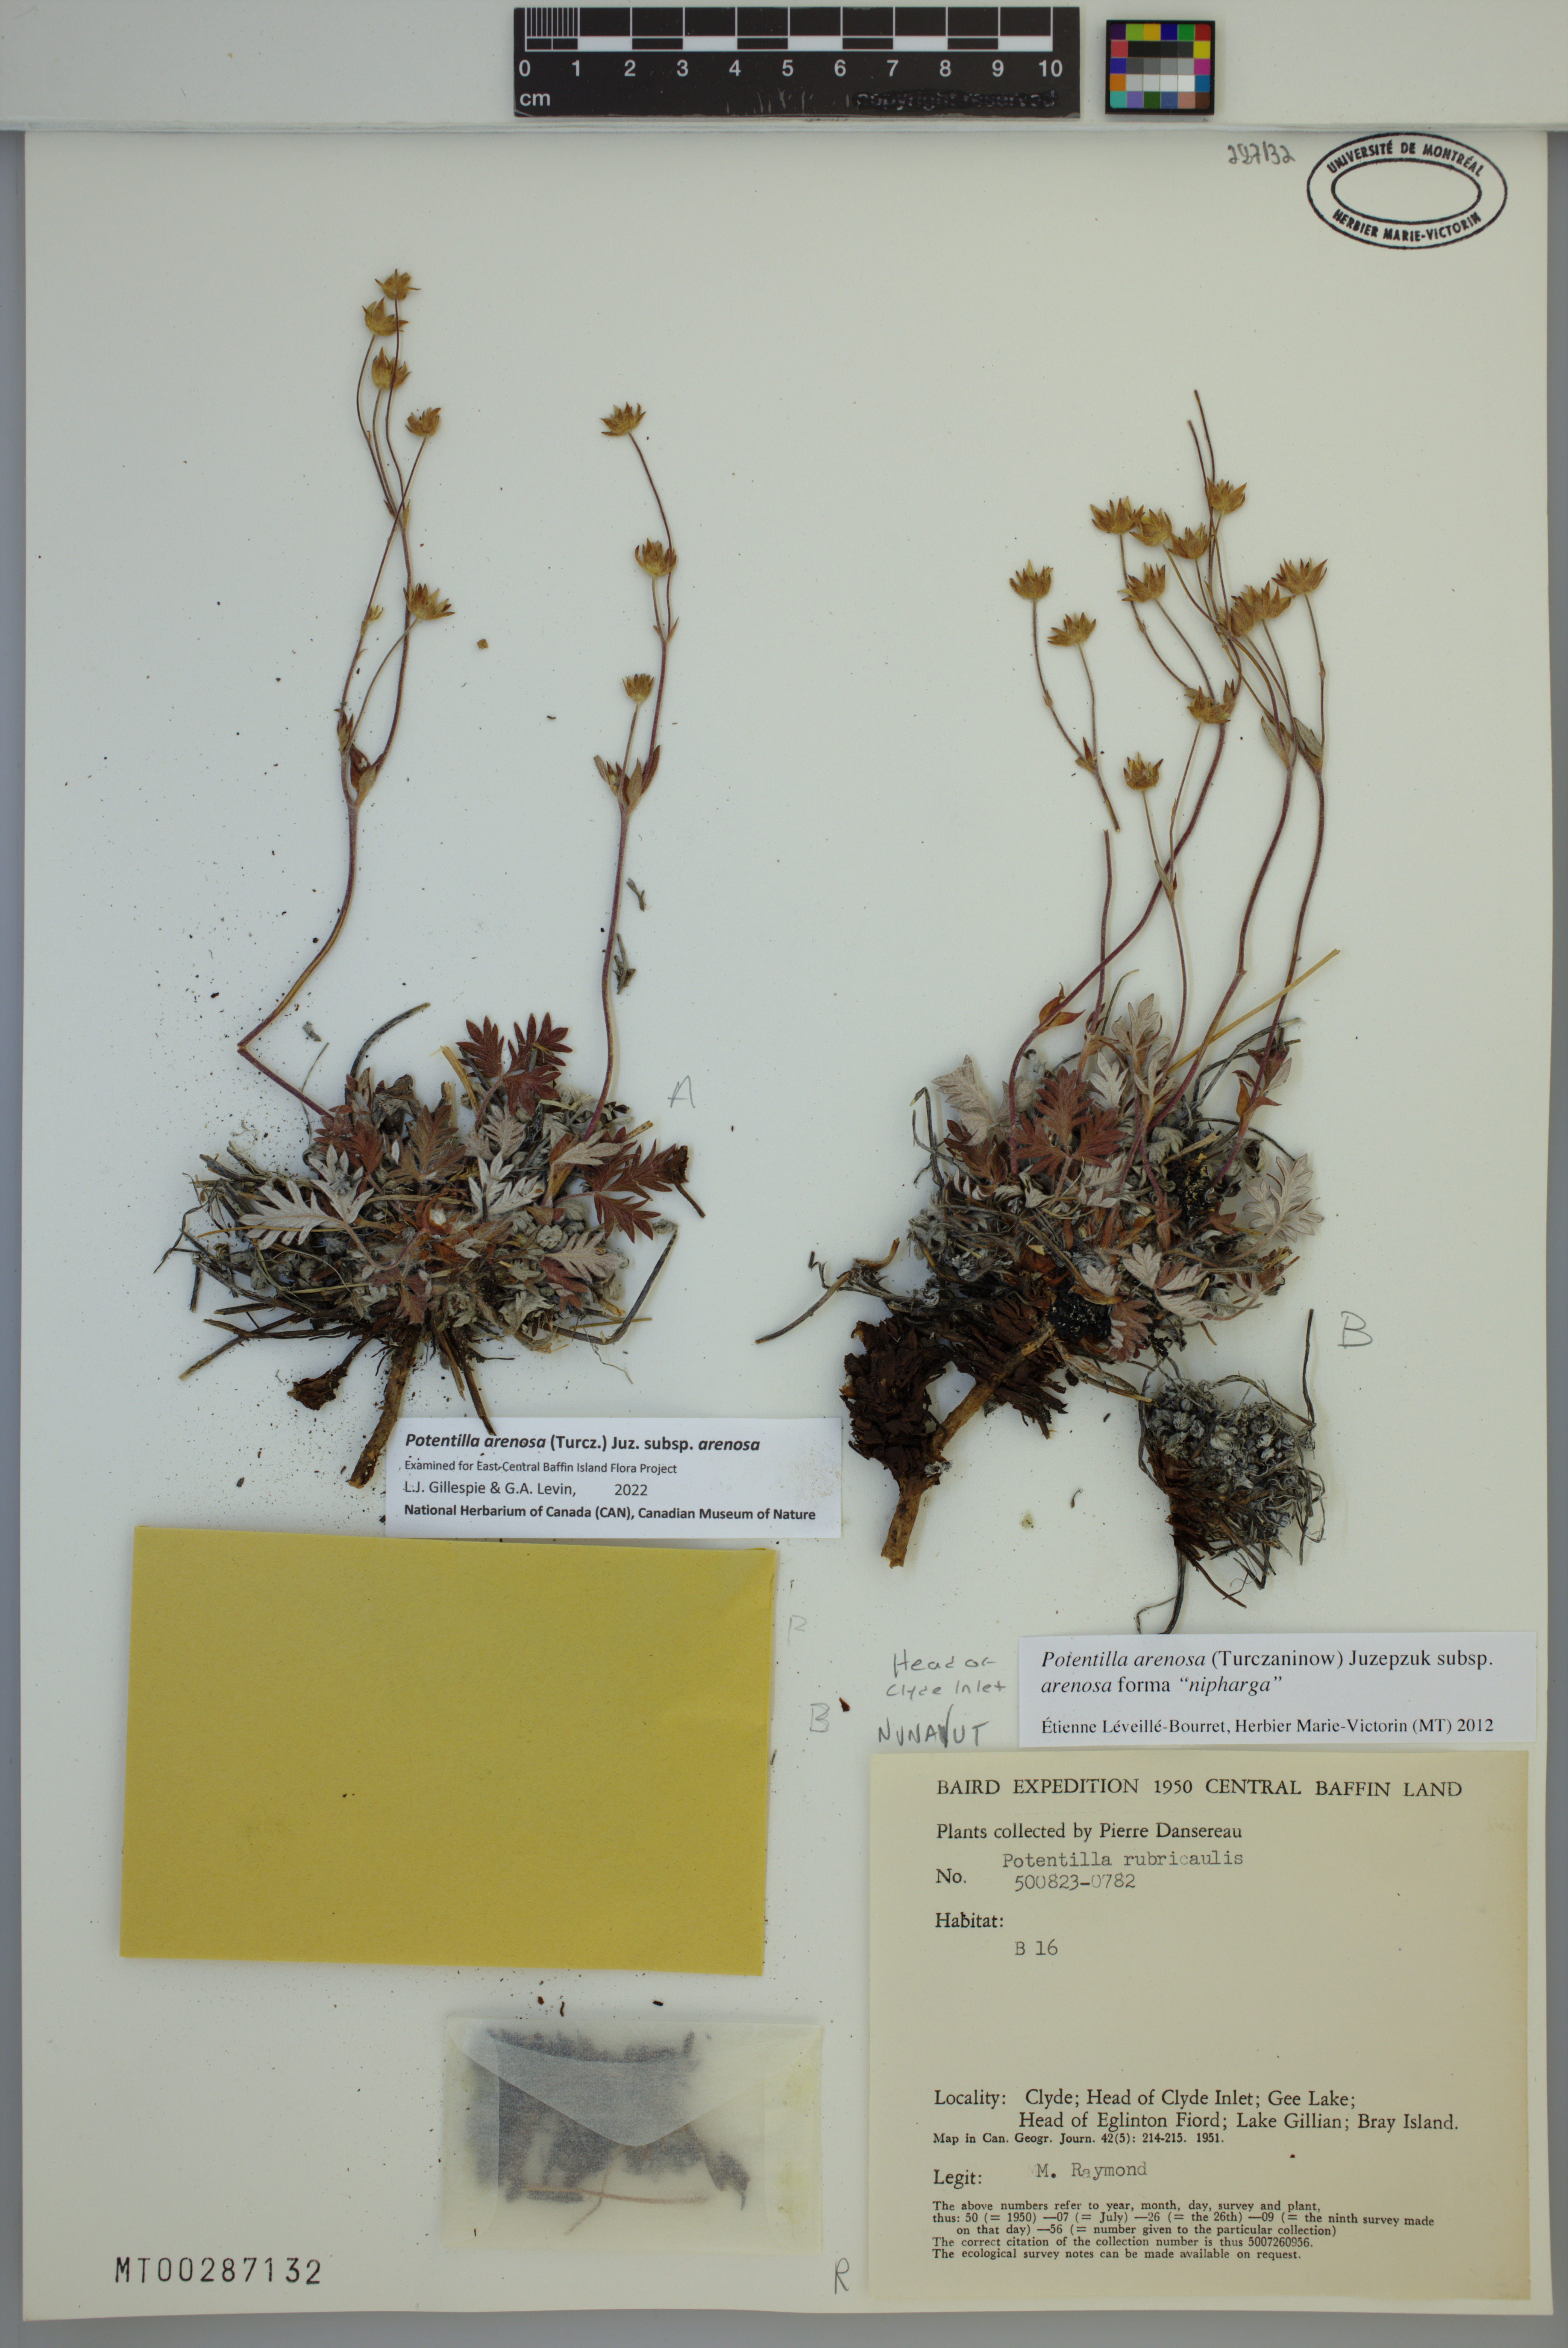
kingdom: Plantae
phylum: Tracheophyta
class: Magnoliopsida
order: Rosales
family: Rosaceae
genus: Potentilla
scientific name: Potentilla arenosa
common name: Bluff cinquefoil
